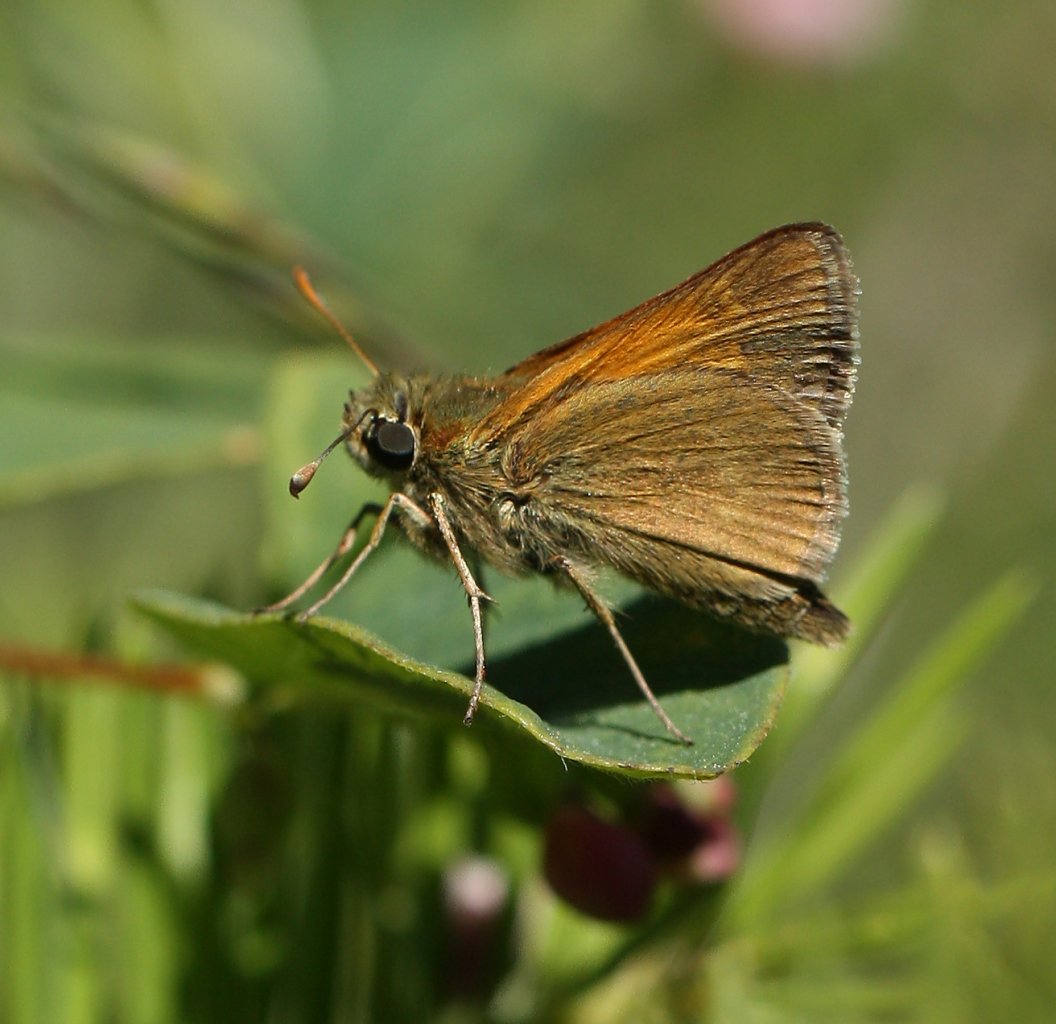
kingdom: Animalia
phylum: Arthropoda
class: Insecta
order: Lepidoptera
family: Hesperiidae
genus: Polites
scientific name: Polites themistocles
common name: Tawny-edged Skipper
